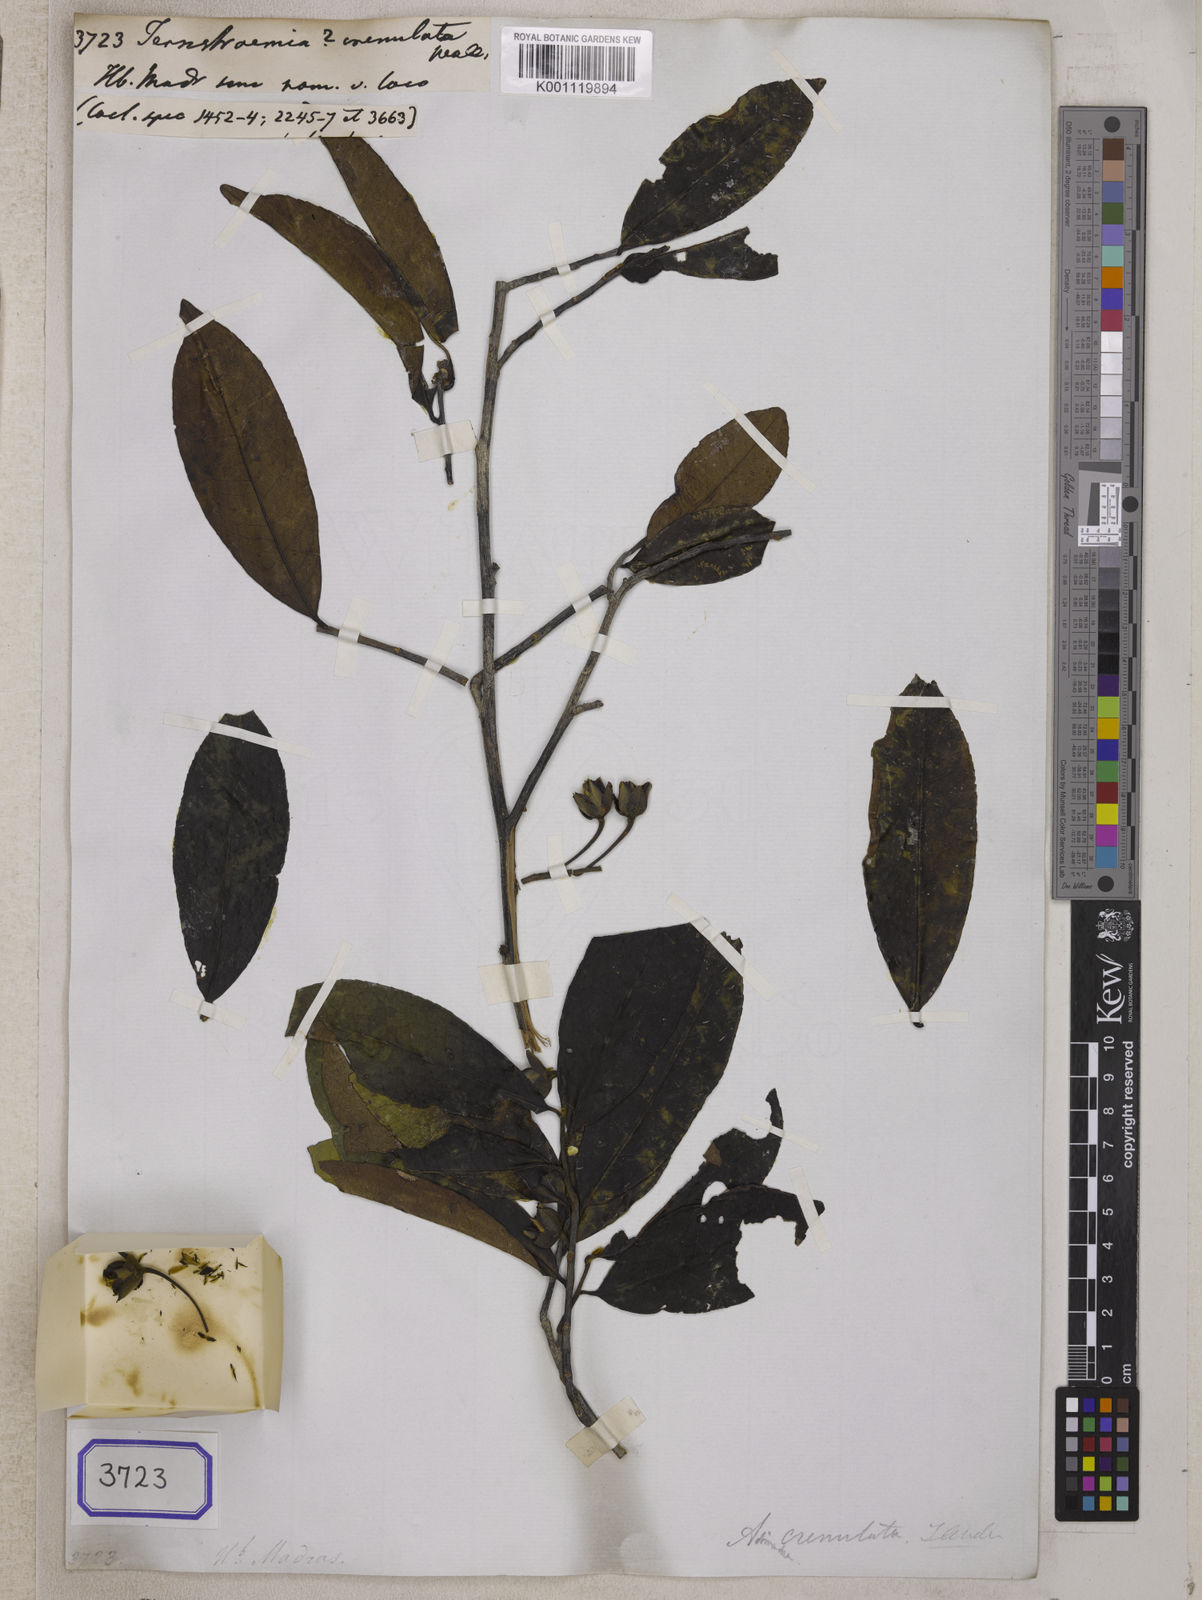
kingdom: Plantae
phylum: Tracheophyta
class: Magnoliopsida
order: Ericales
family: Pentaphylacaceae
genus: Adinandra
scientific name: Adinandra crenulata
